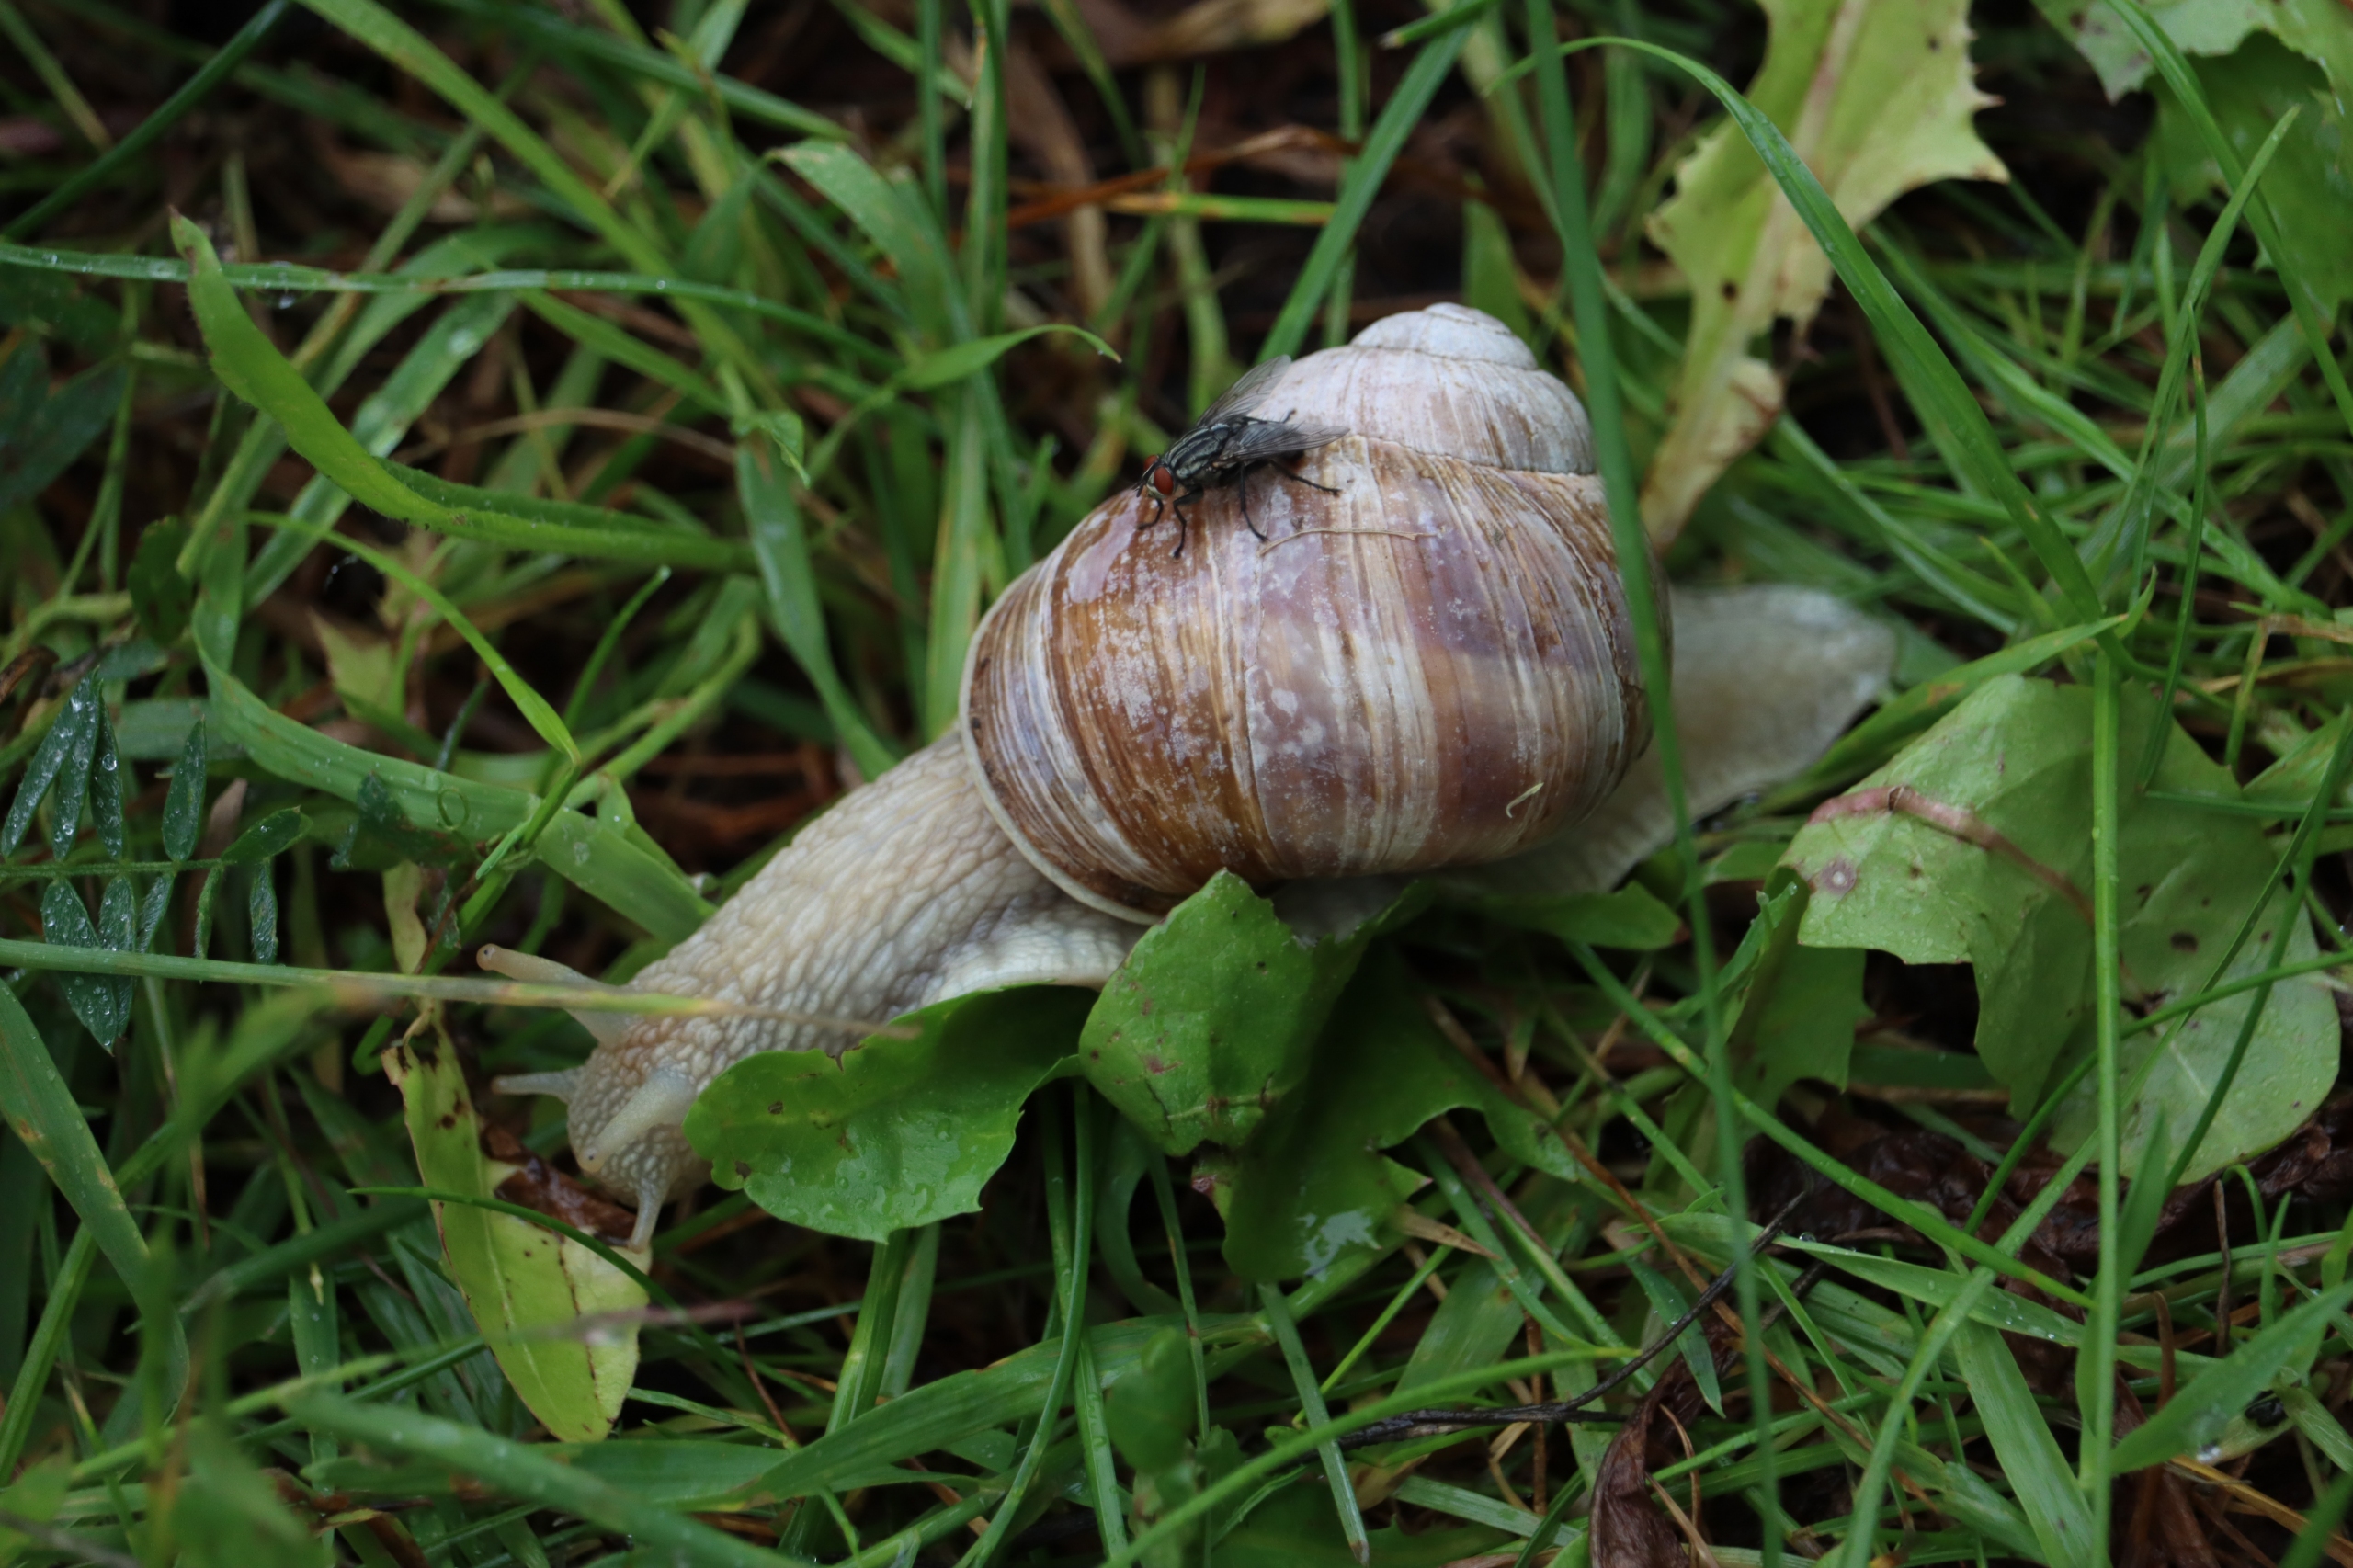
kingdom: Animalia
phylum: Mollusca
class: Gastropoda
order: Stylommatophora
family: Helicidae
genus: Helix
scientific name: Helix pomatia
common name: Vinbjergsnegl
